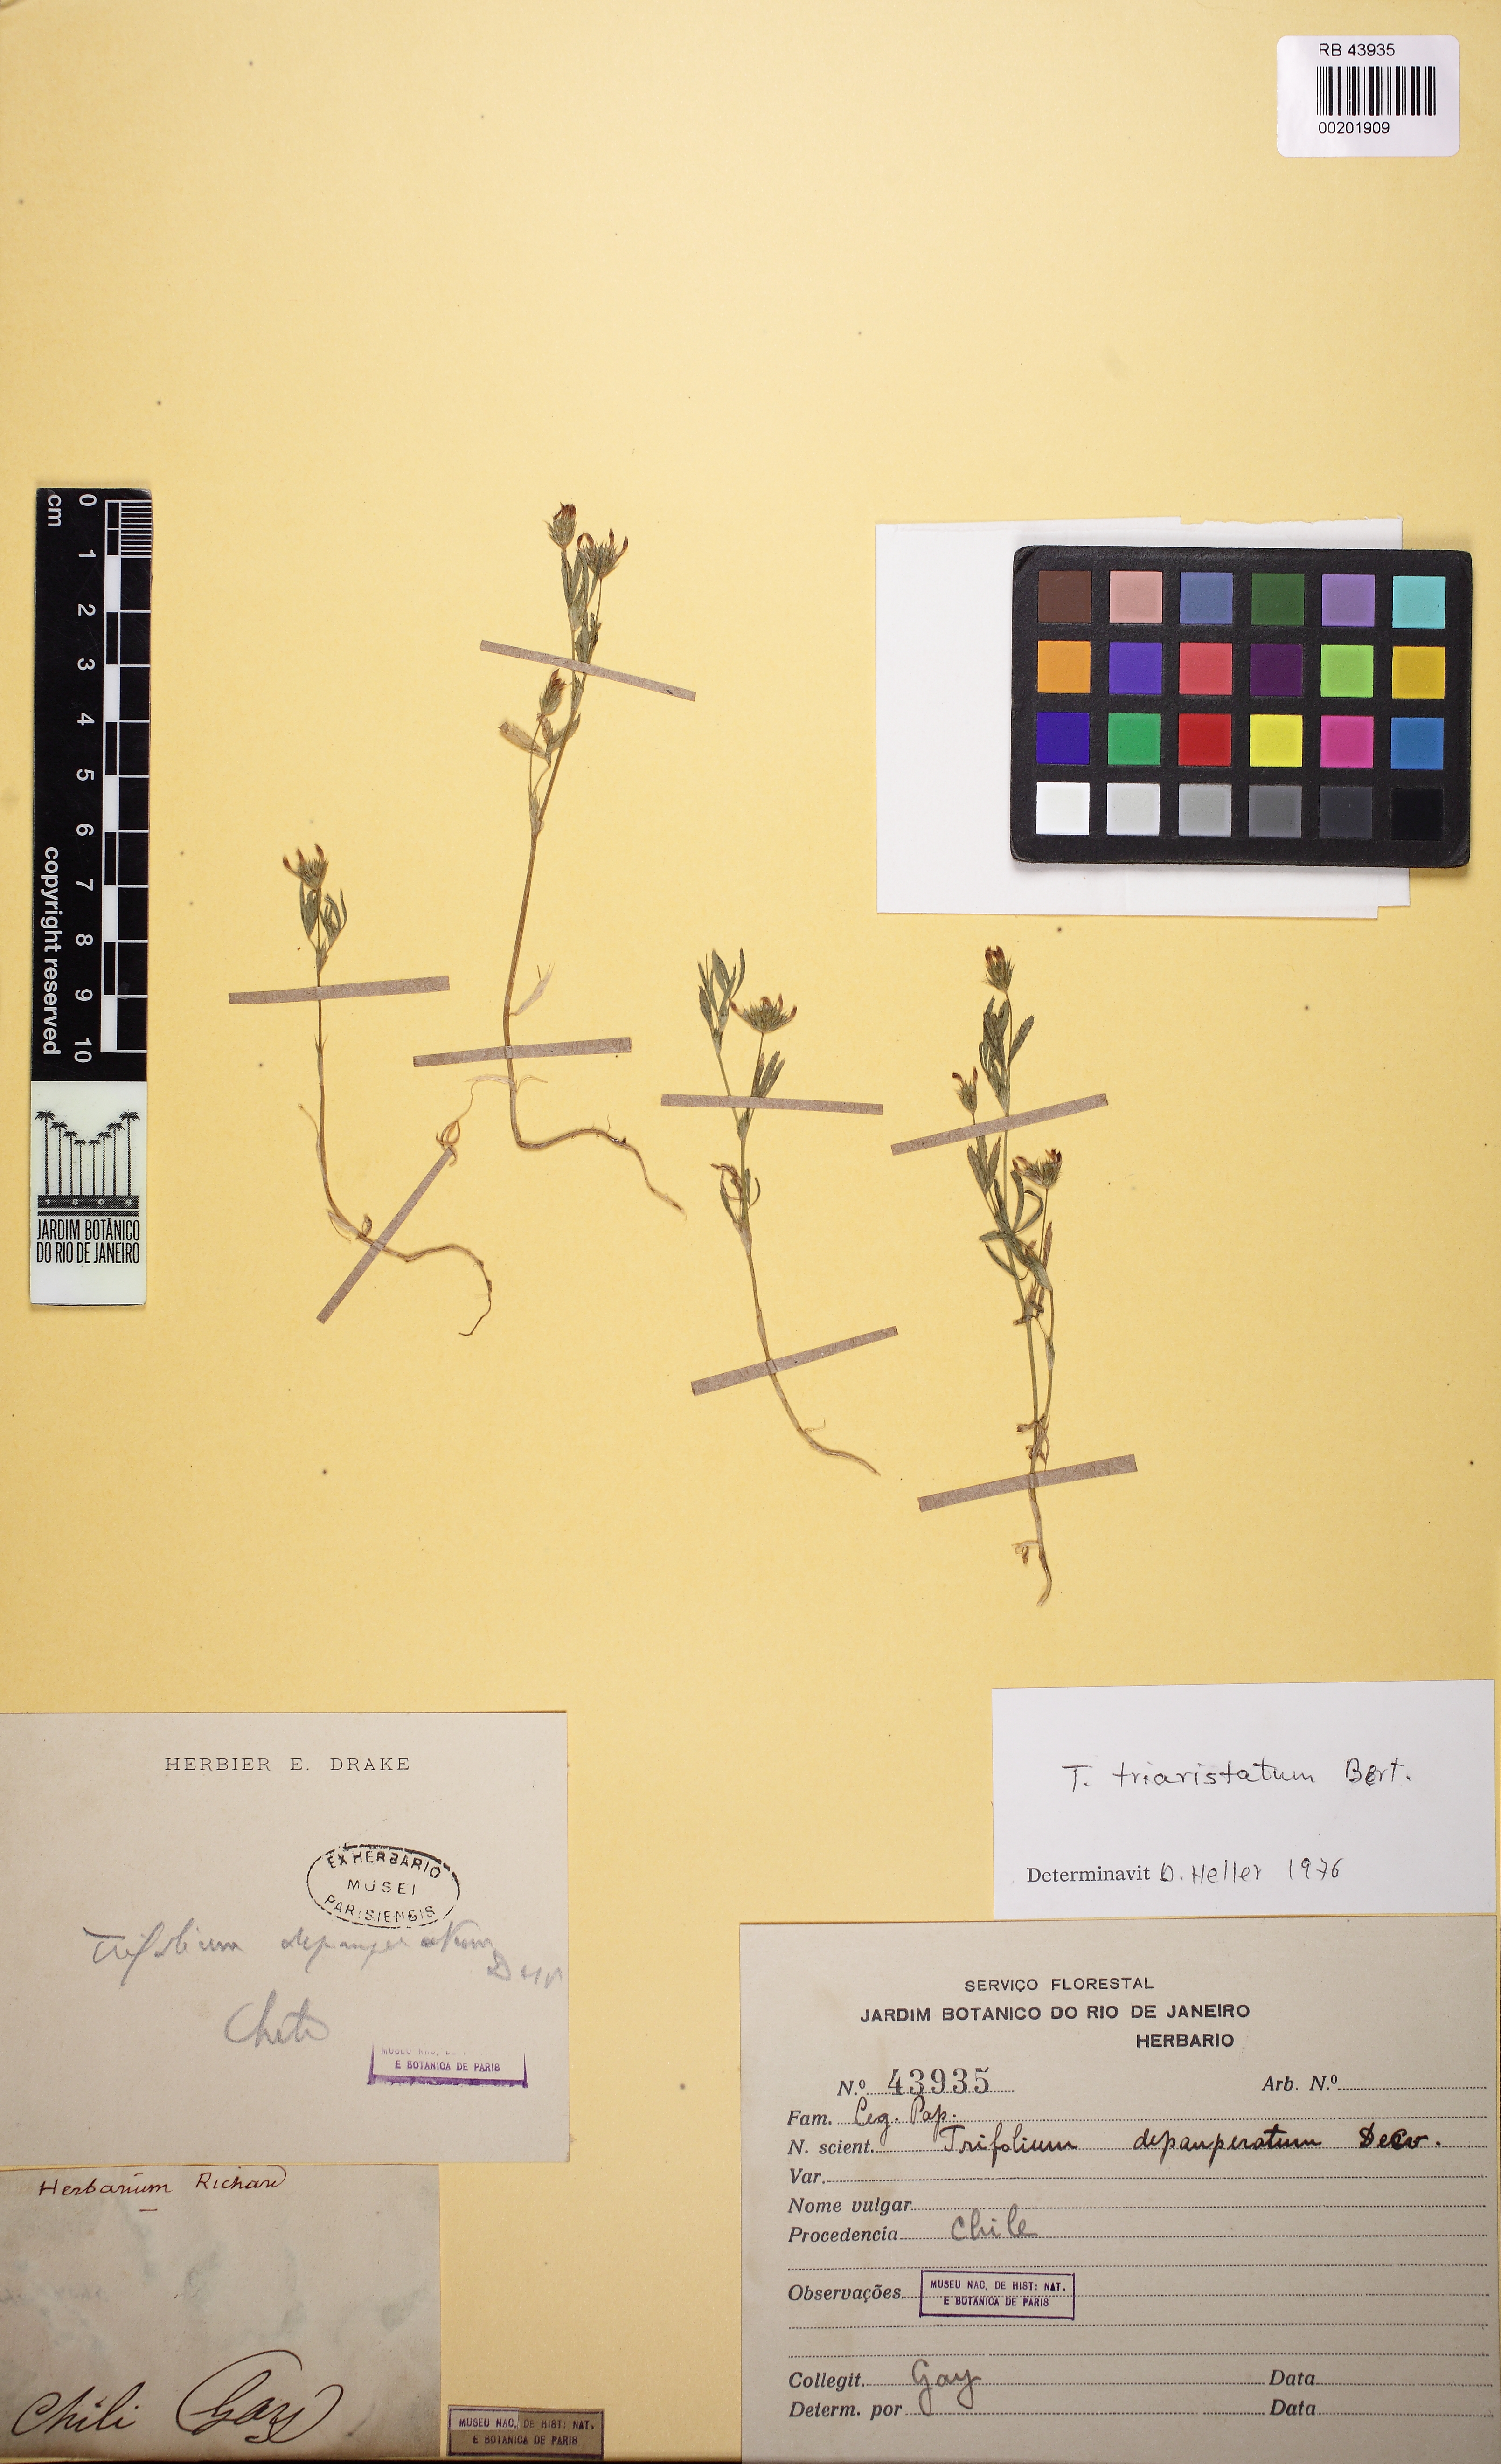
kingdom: Plantae
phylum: Tracheophyta
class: Magnoliopsida
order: Fabales
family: Fabaceae
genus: Trifolium
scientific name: Trifolium depauperatum
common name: Poverty clover
